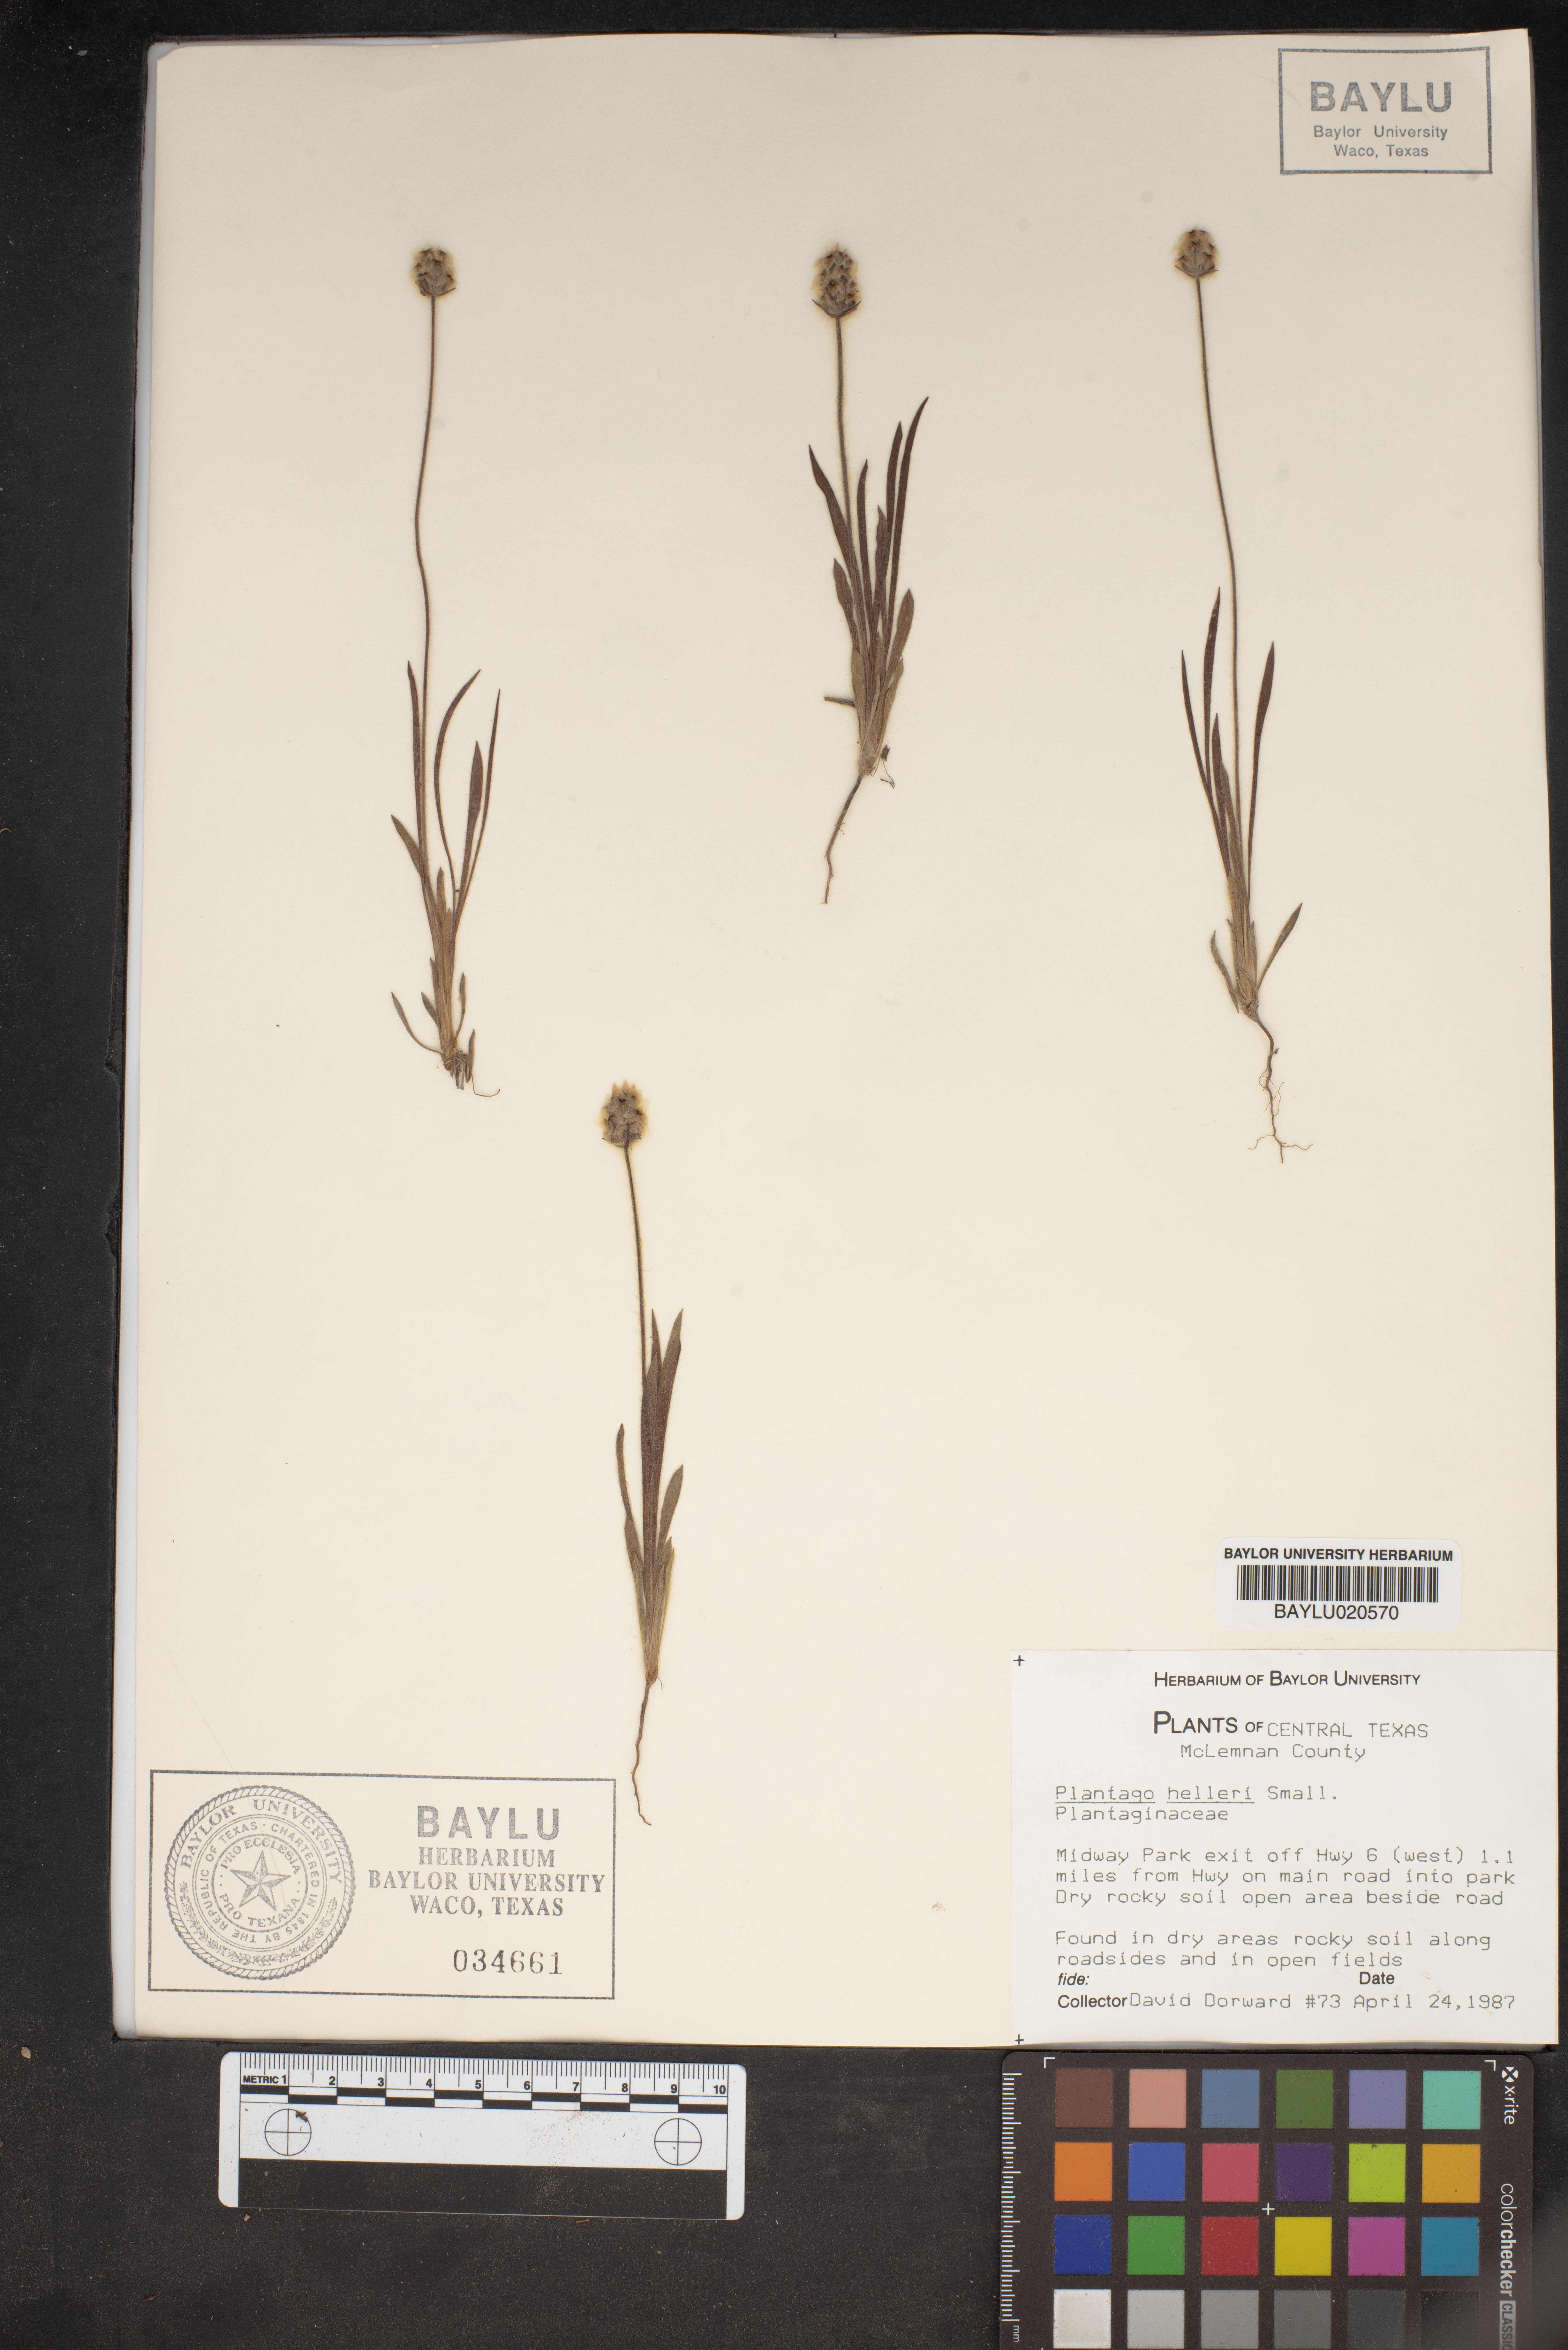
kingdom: Plantae
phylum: Tracheophyta
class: Magnoliopsida
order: Lamiales
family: Plantaginaceae
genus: Plantago
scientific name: Plantago helleri
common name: Heller's plantain
